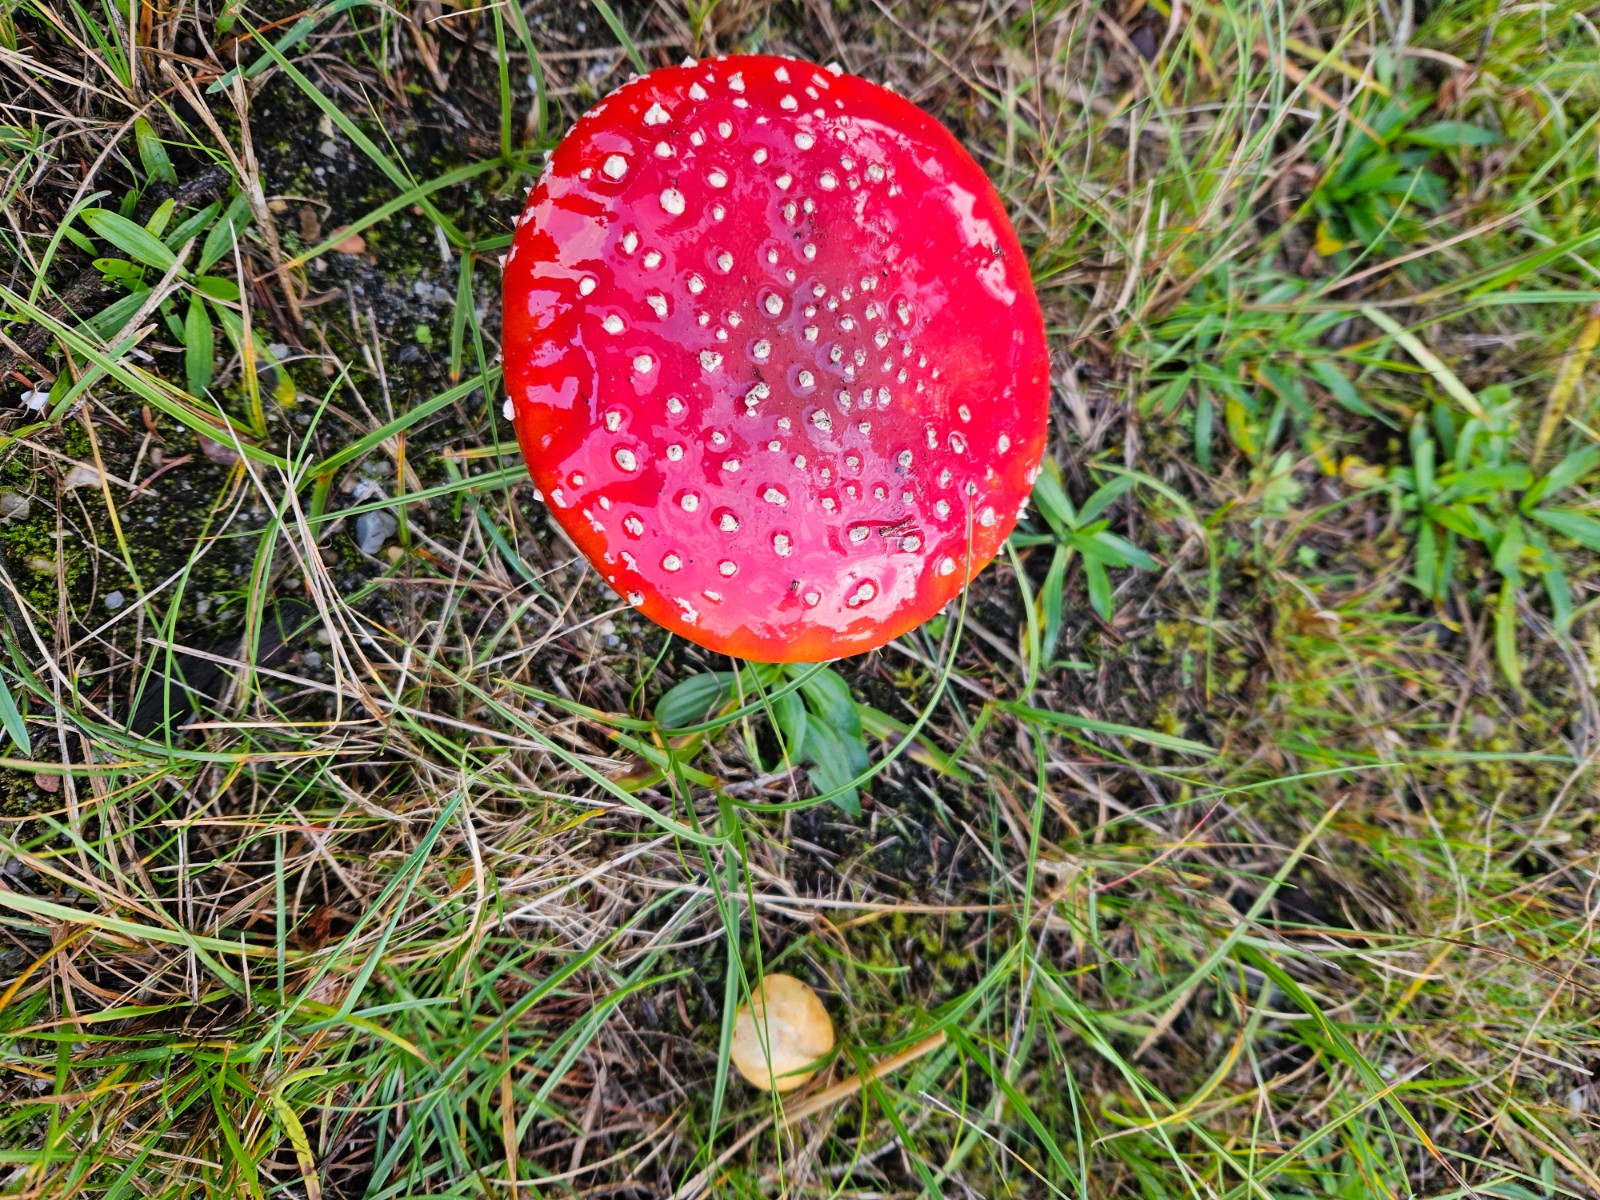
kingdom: Fungi
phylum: Basidiomycota
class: Agaricomycetes
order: Boletales
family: Boletaceae
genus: Chalciporus
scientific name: Chalciporus piperatus
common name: peberrørhat
